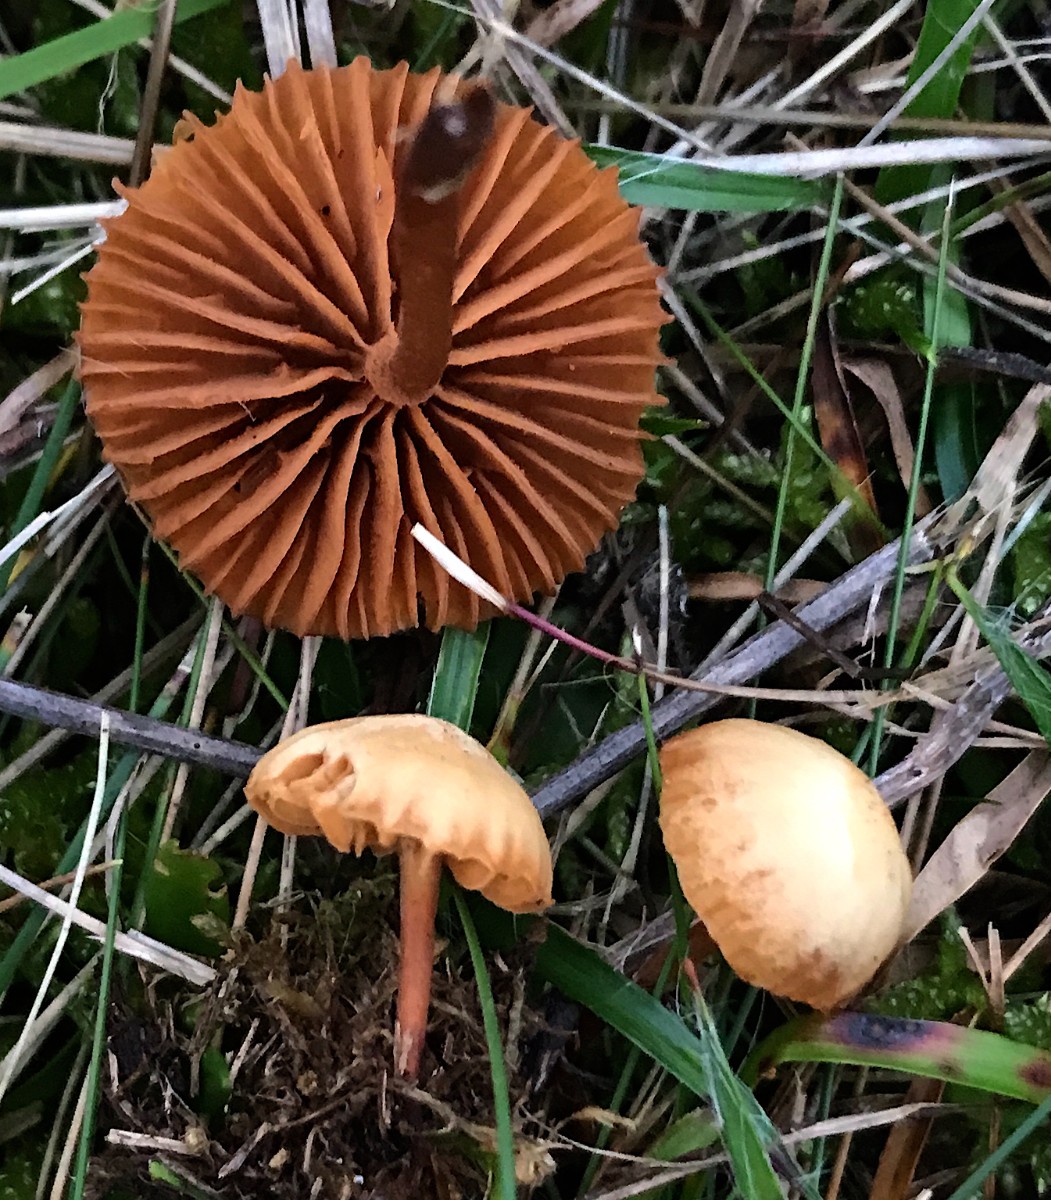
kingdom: Fungi
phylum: Basidiomycota
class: Agaricomycetes
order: Agaricales
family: Tubariaceae
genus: Tubaria
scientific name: Tubaria furfuracea
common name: kliddet fnughat
